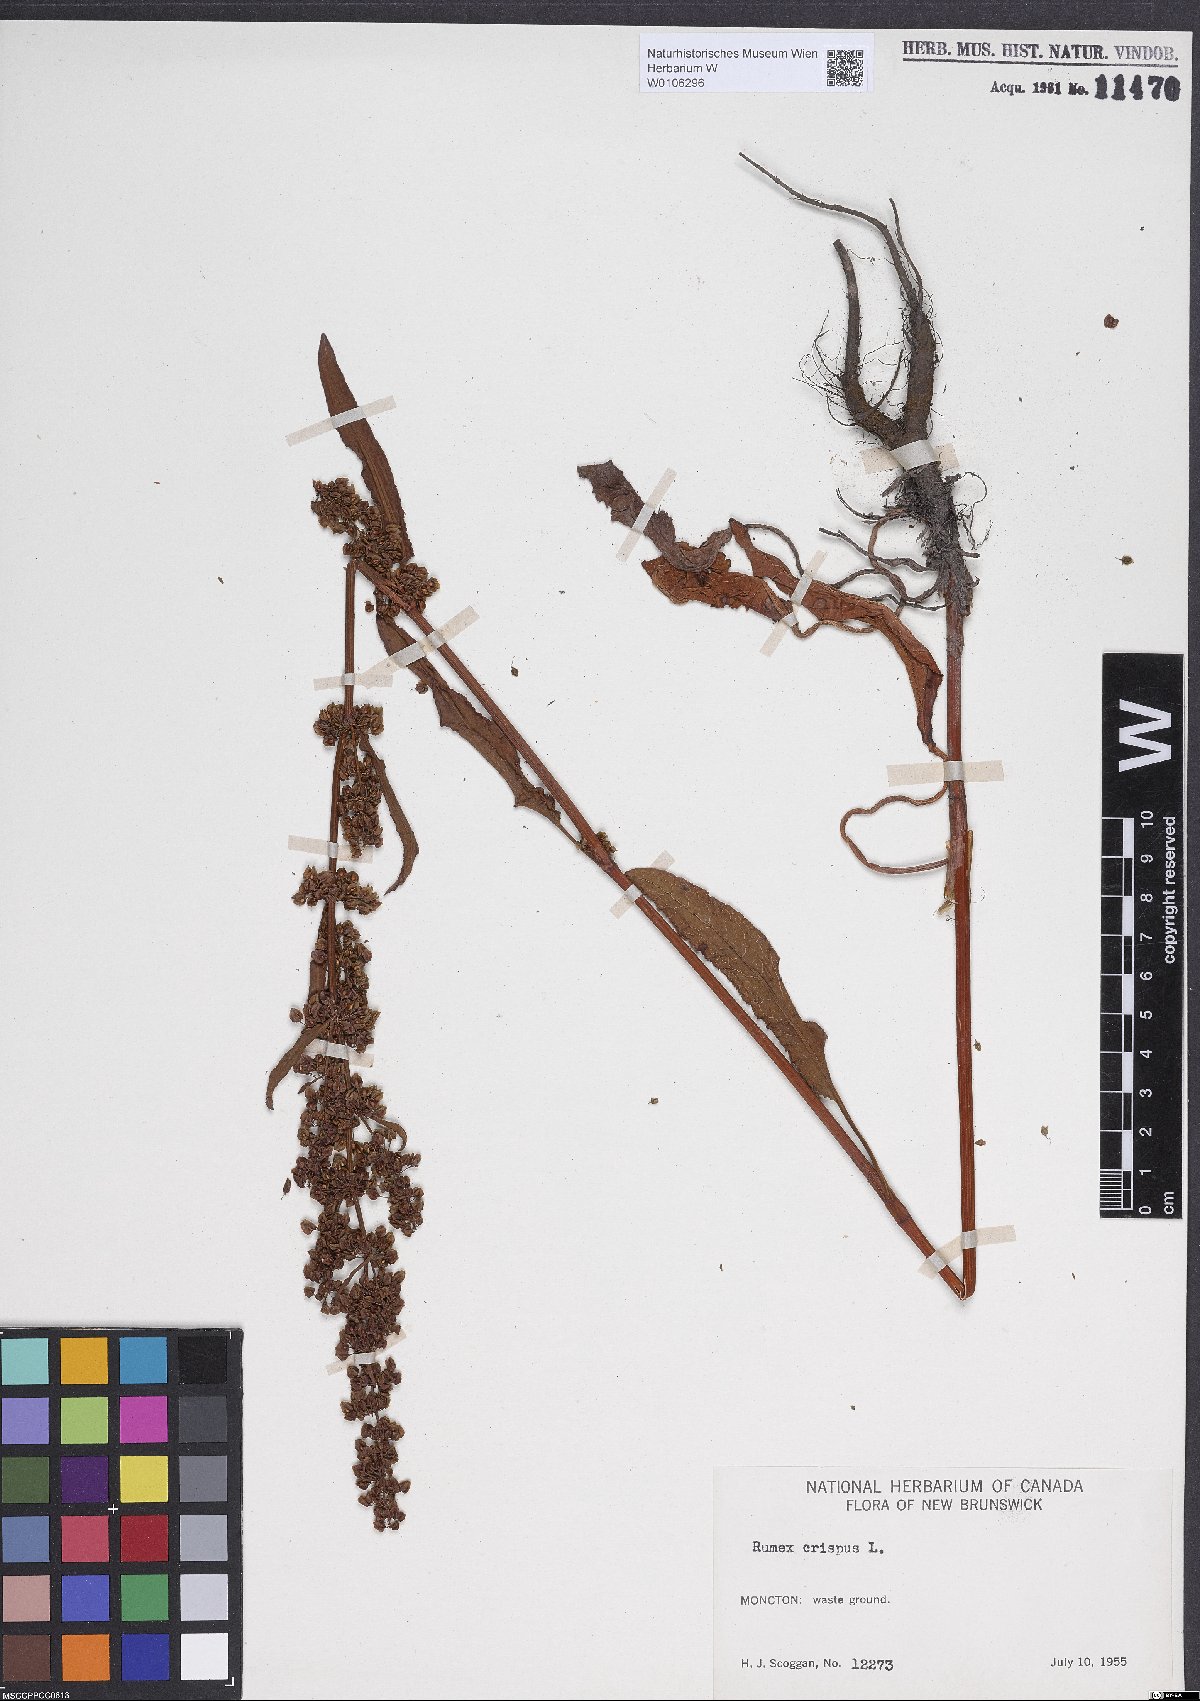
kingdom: Plantae
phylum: Tracheophyta
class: Magnoliopsida
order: Caryophyllales
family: Polygonaceae
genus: Rumex
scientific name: Rumex crispus
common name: Curled dock
